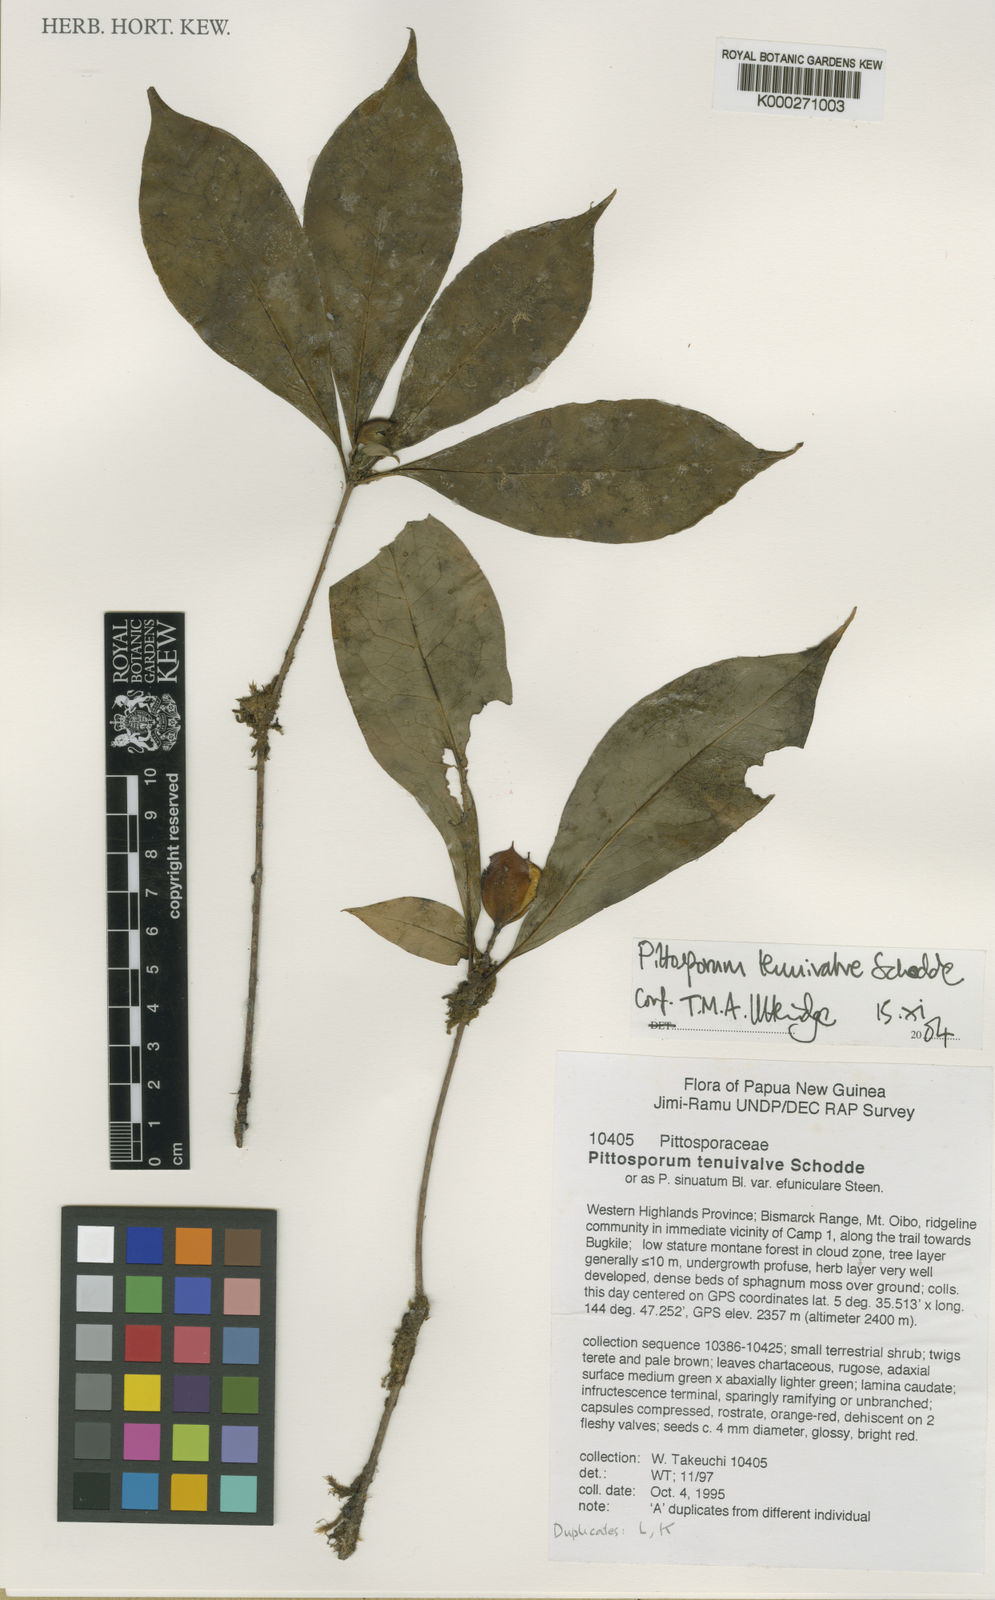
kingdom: Plantae
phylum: Tracheophyta
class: Magnoliopsida
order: Apiales
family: Pittosporaceae
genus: Pittosporum
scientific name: Pittosporum tenuivalve
